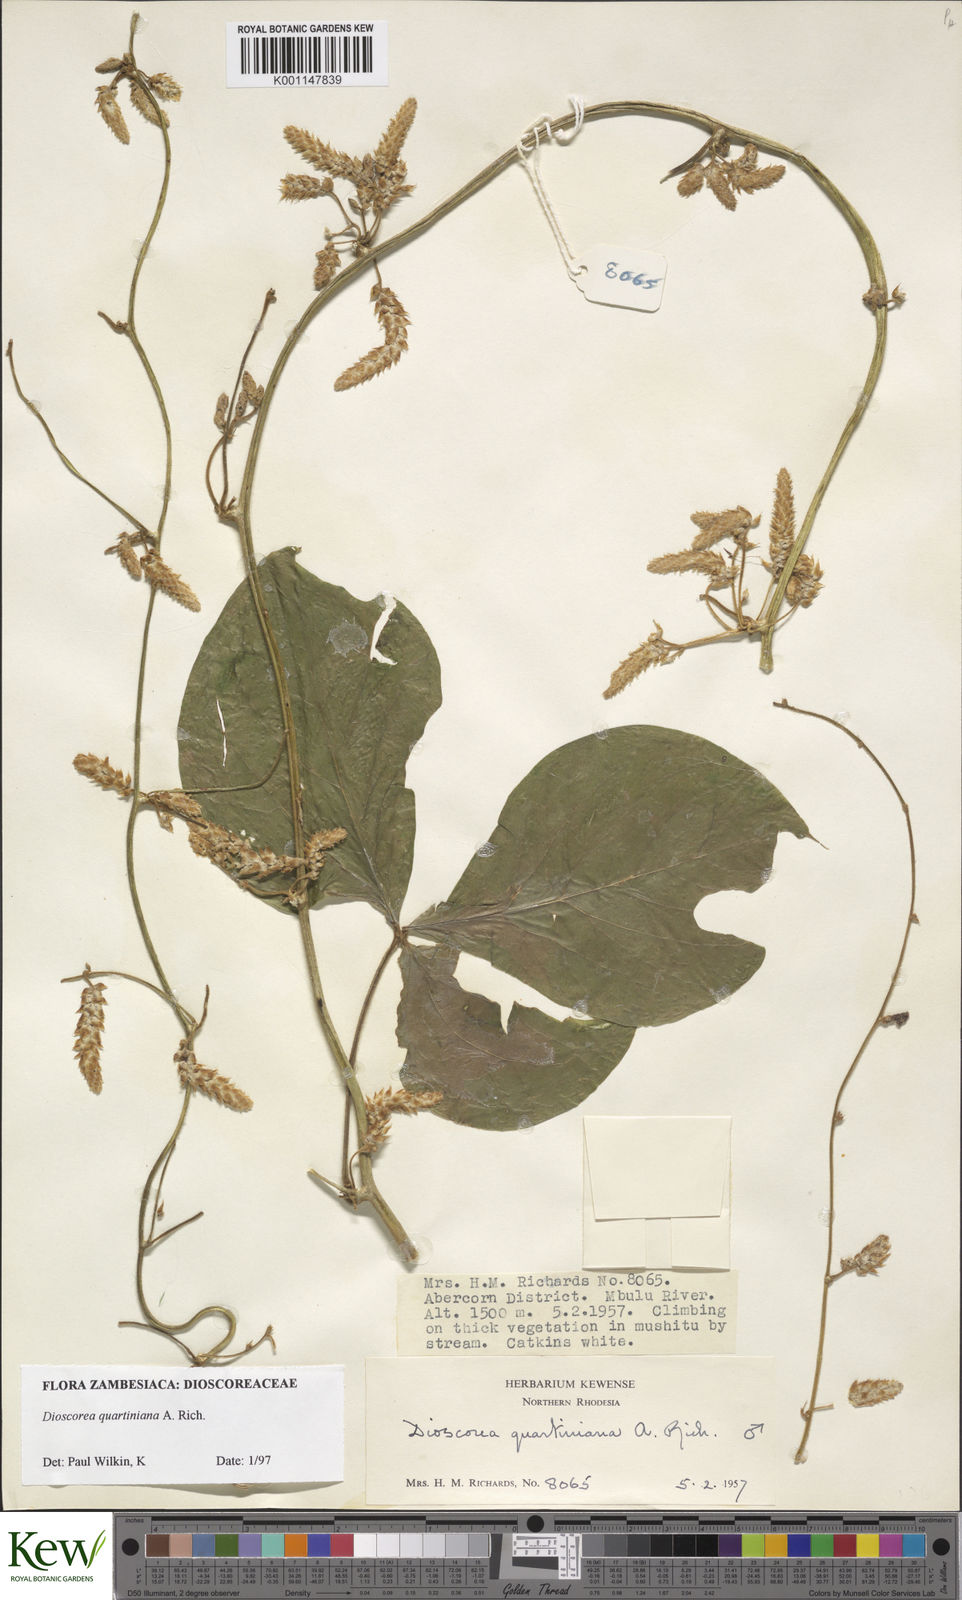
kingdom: Plantae
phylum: Tracheophyta
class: Liliopsida
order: Dioscoreales
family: Dioscoreaceae
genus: Dioscorea
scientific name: Dioscorea quartiniana
